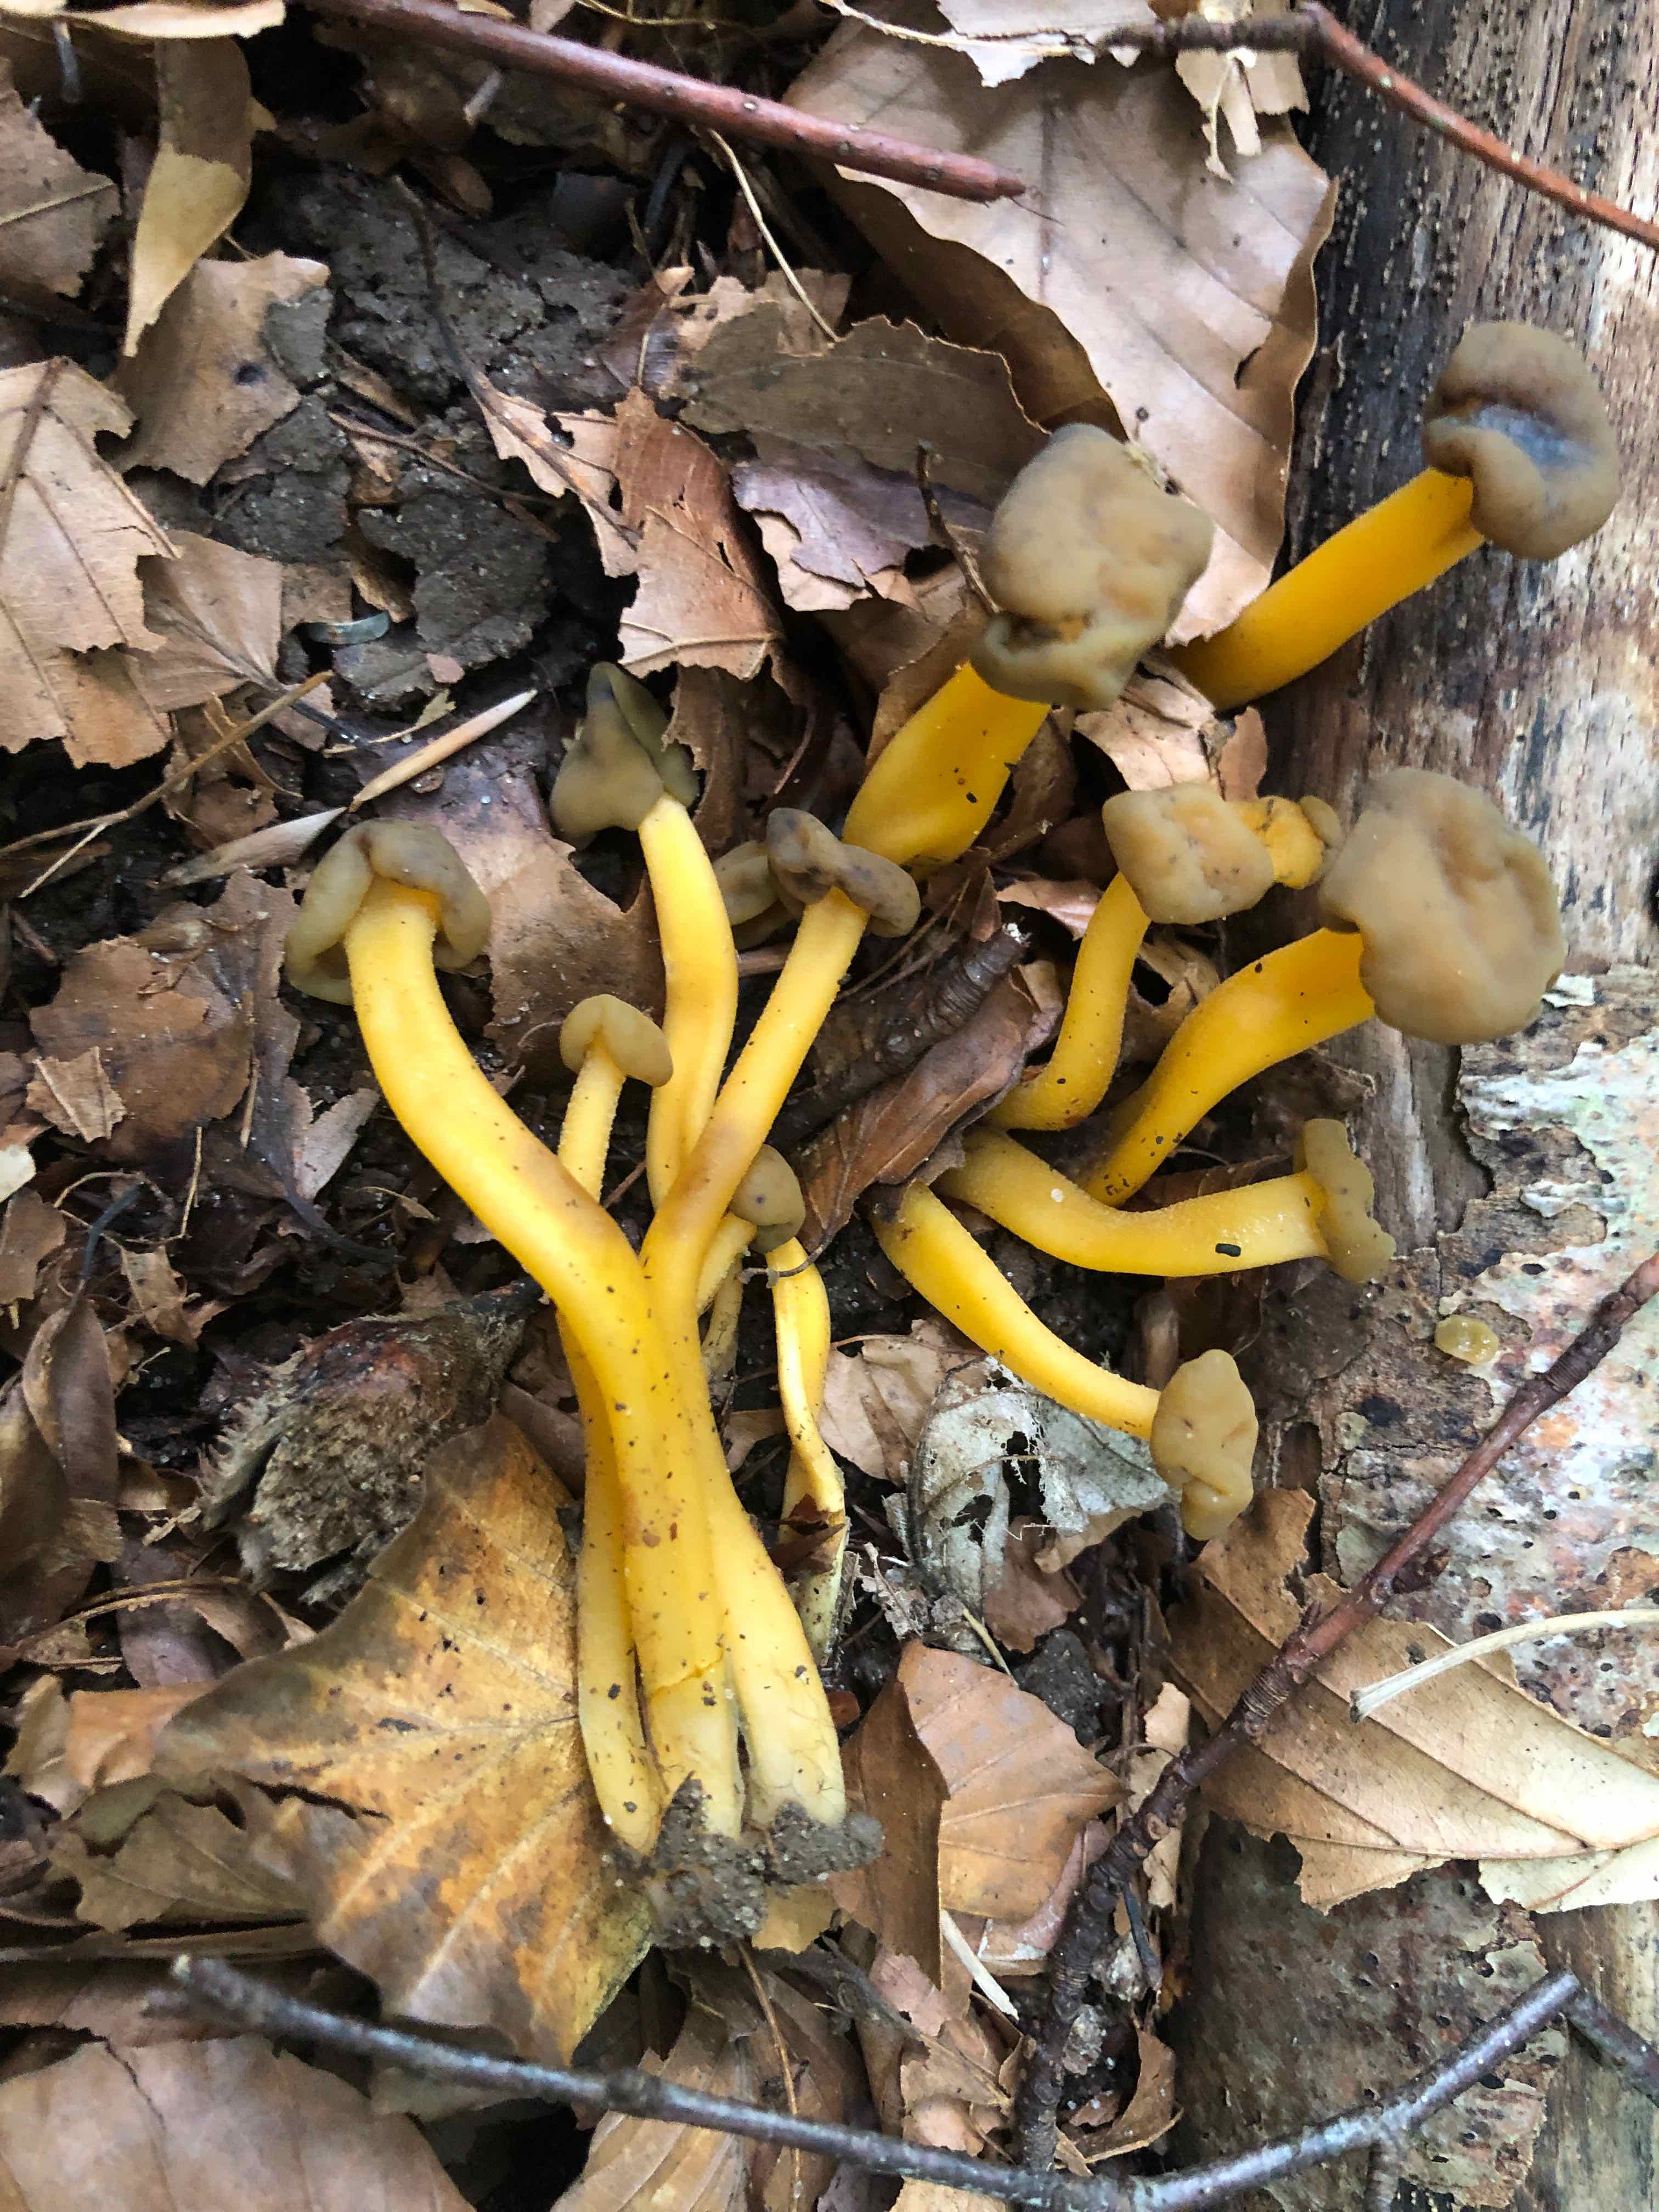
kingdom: Fungi
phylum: Ascomycota
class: Leotiomycetes
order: Leotiales
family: Leotiaceae
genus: Leotia
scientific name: Leotia lubrica
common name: ravsvamp
